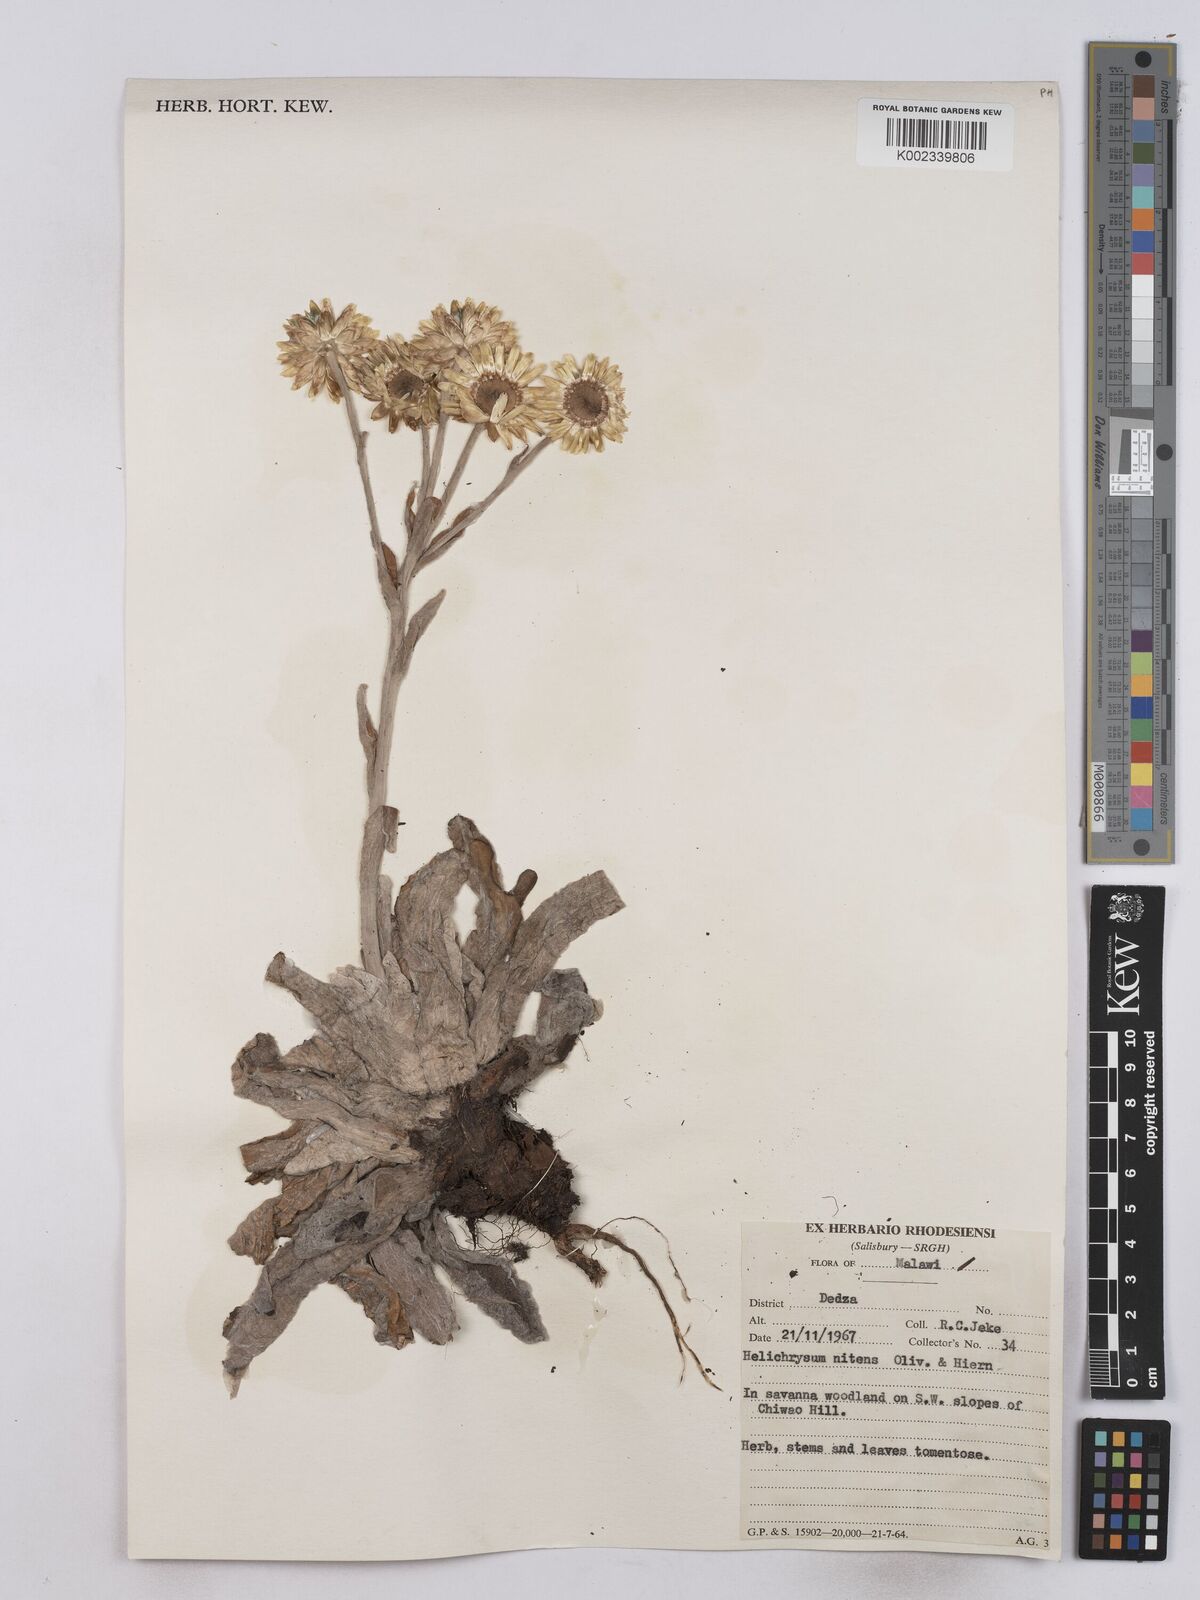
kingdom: Plantae
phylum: Tracheophyta
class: Magnoliopsida
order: Asterales
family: Asteraceae
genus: Helichrysum
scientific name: Helichrysum nitens
